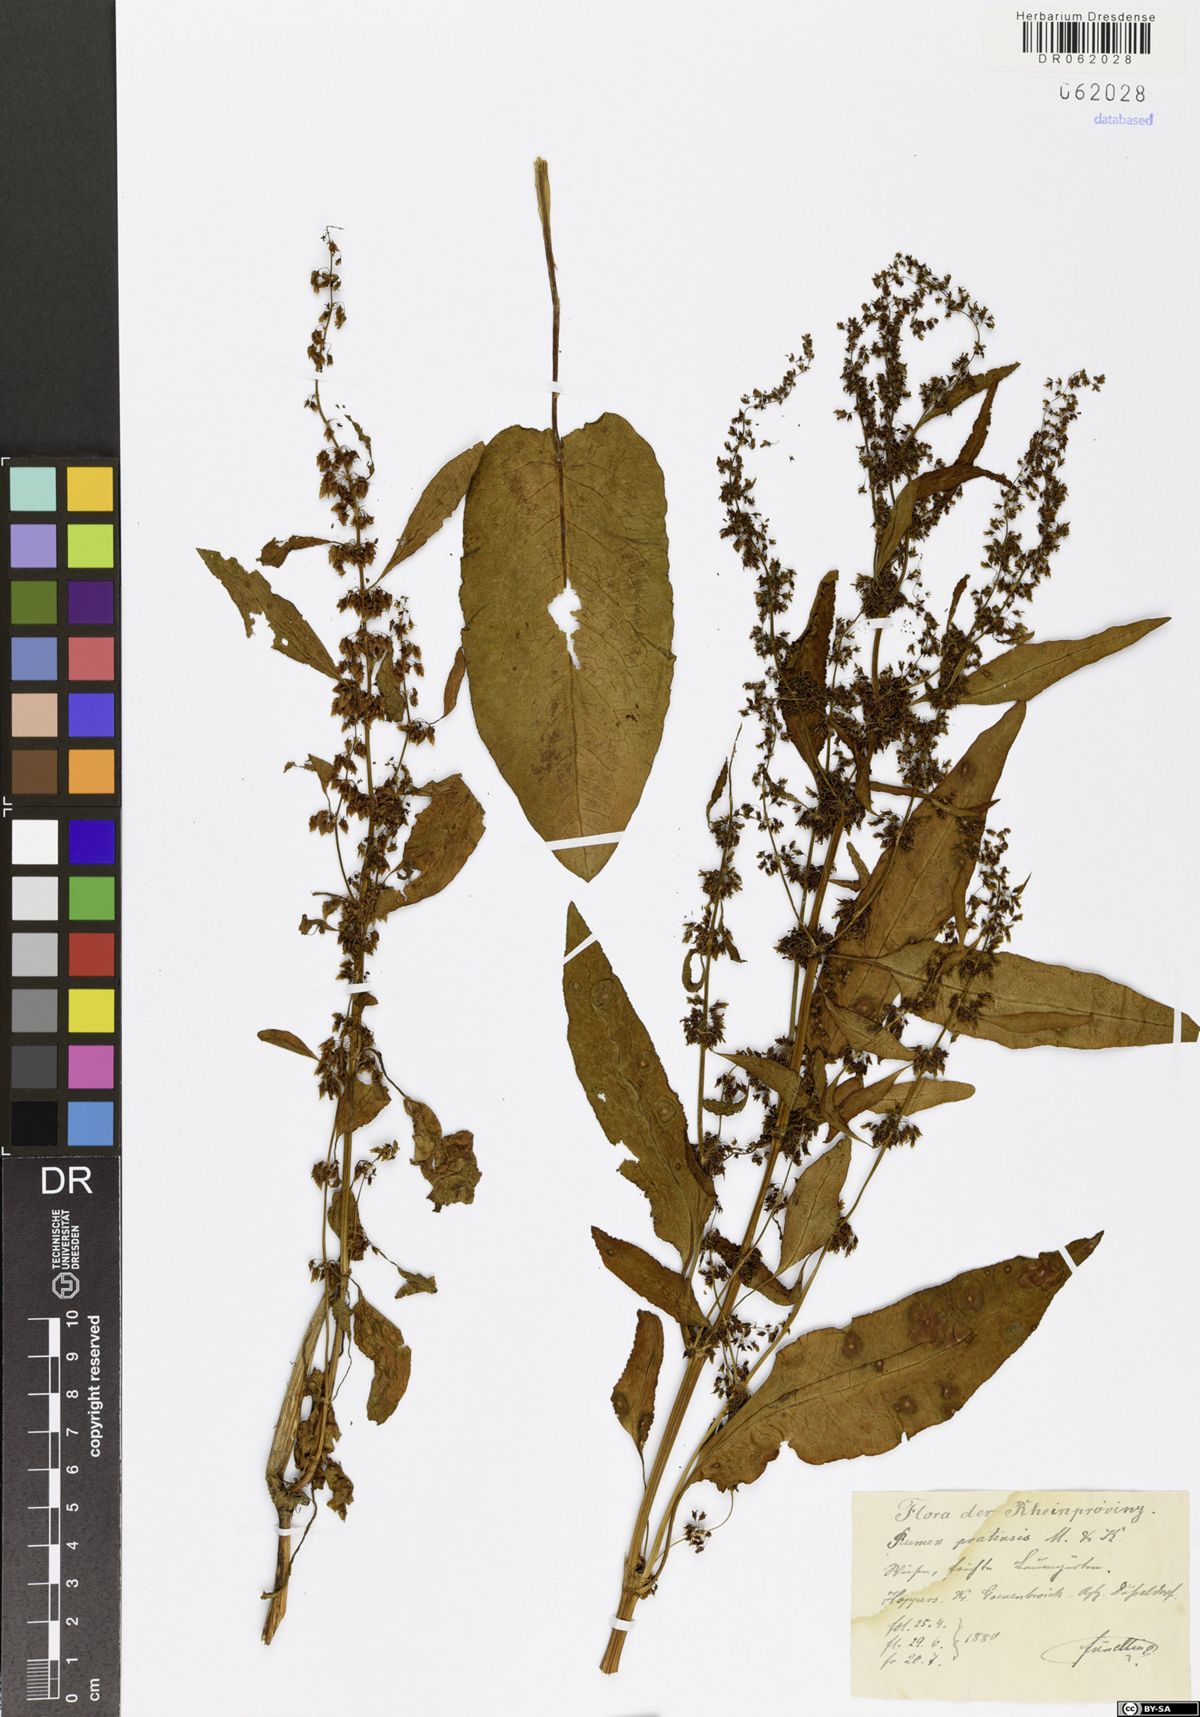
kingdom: Plantae
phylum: Tracheophyta
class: Magnoliopsida
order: Caryophyllales
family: Polygonaceae
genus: Rumex
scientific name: Rumex pratensis
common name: Knotweed
